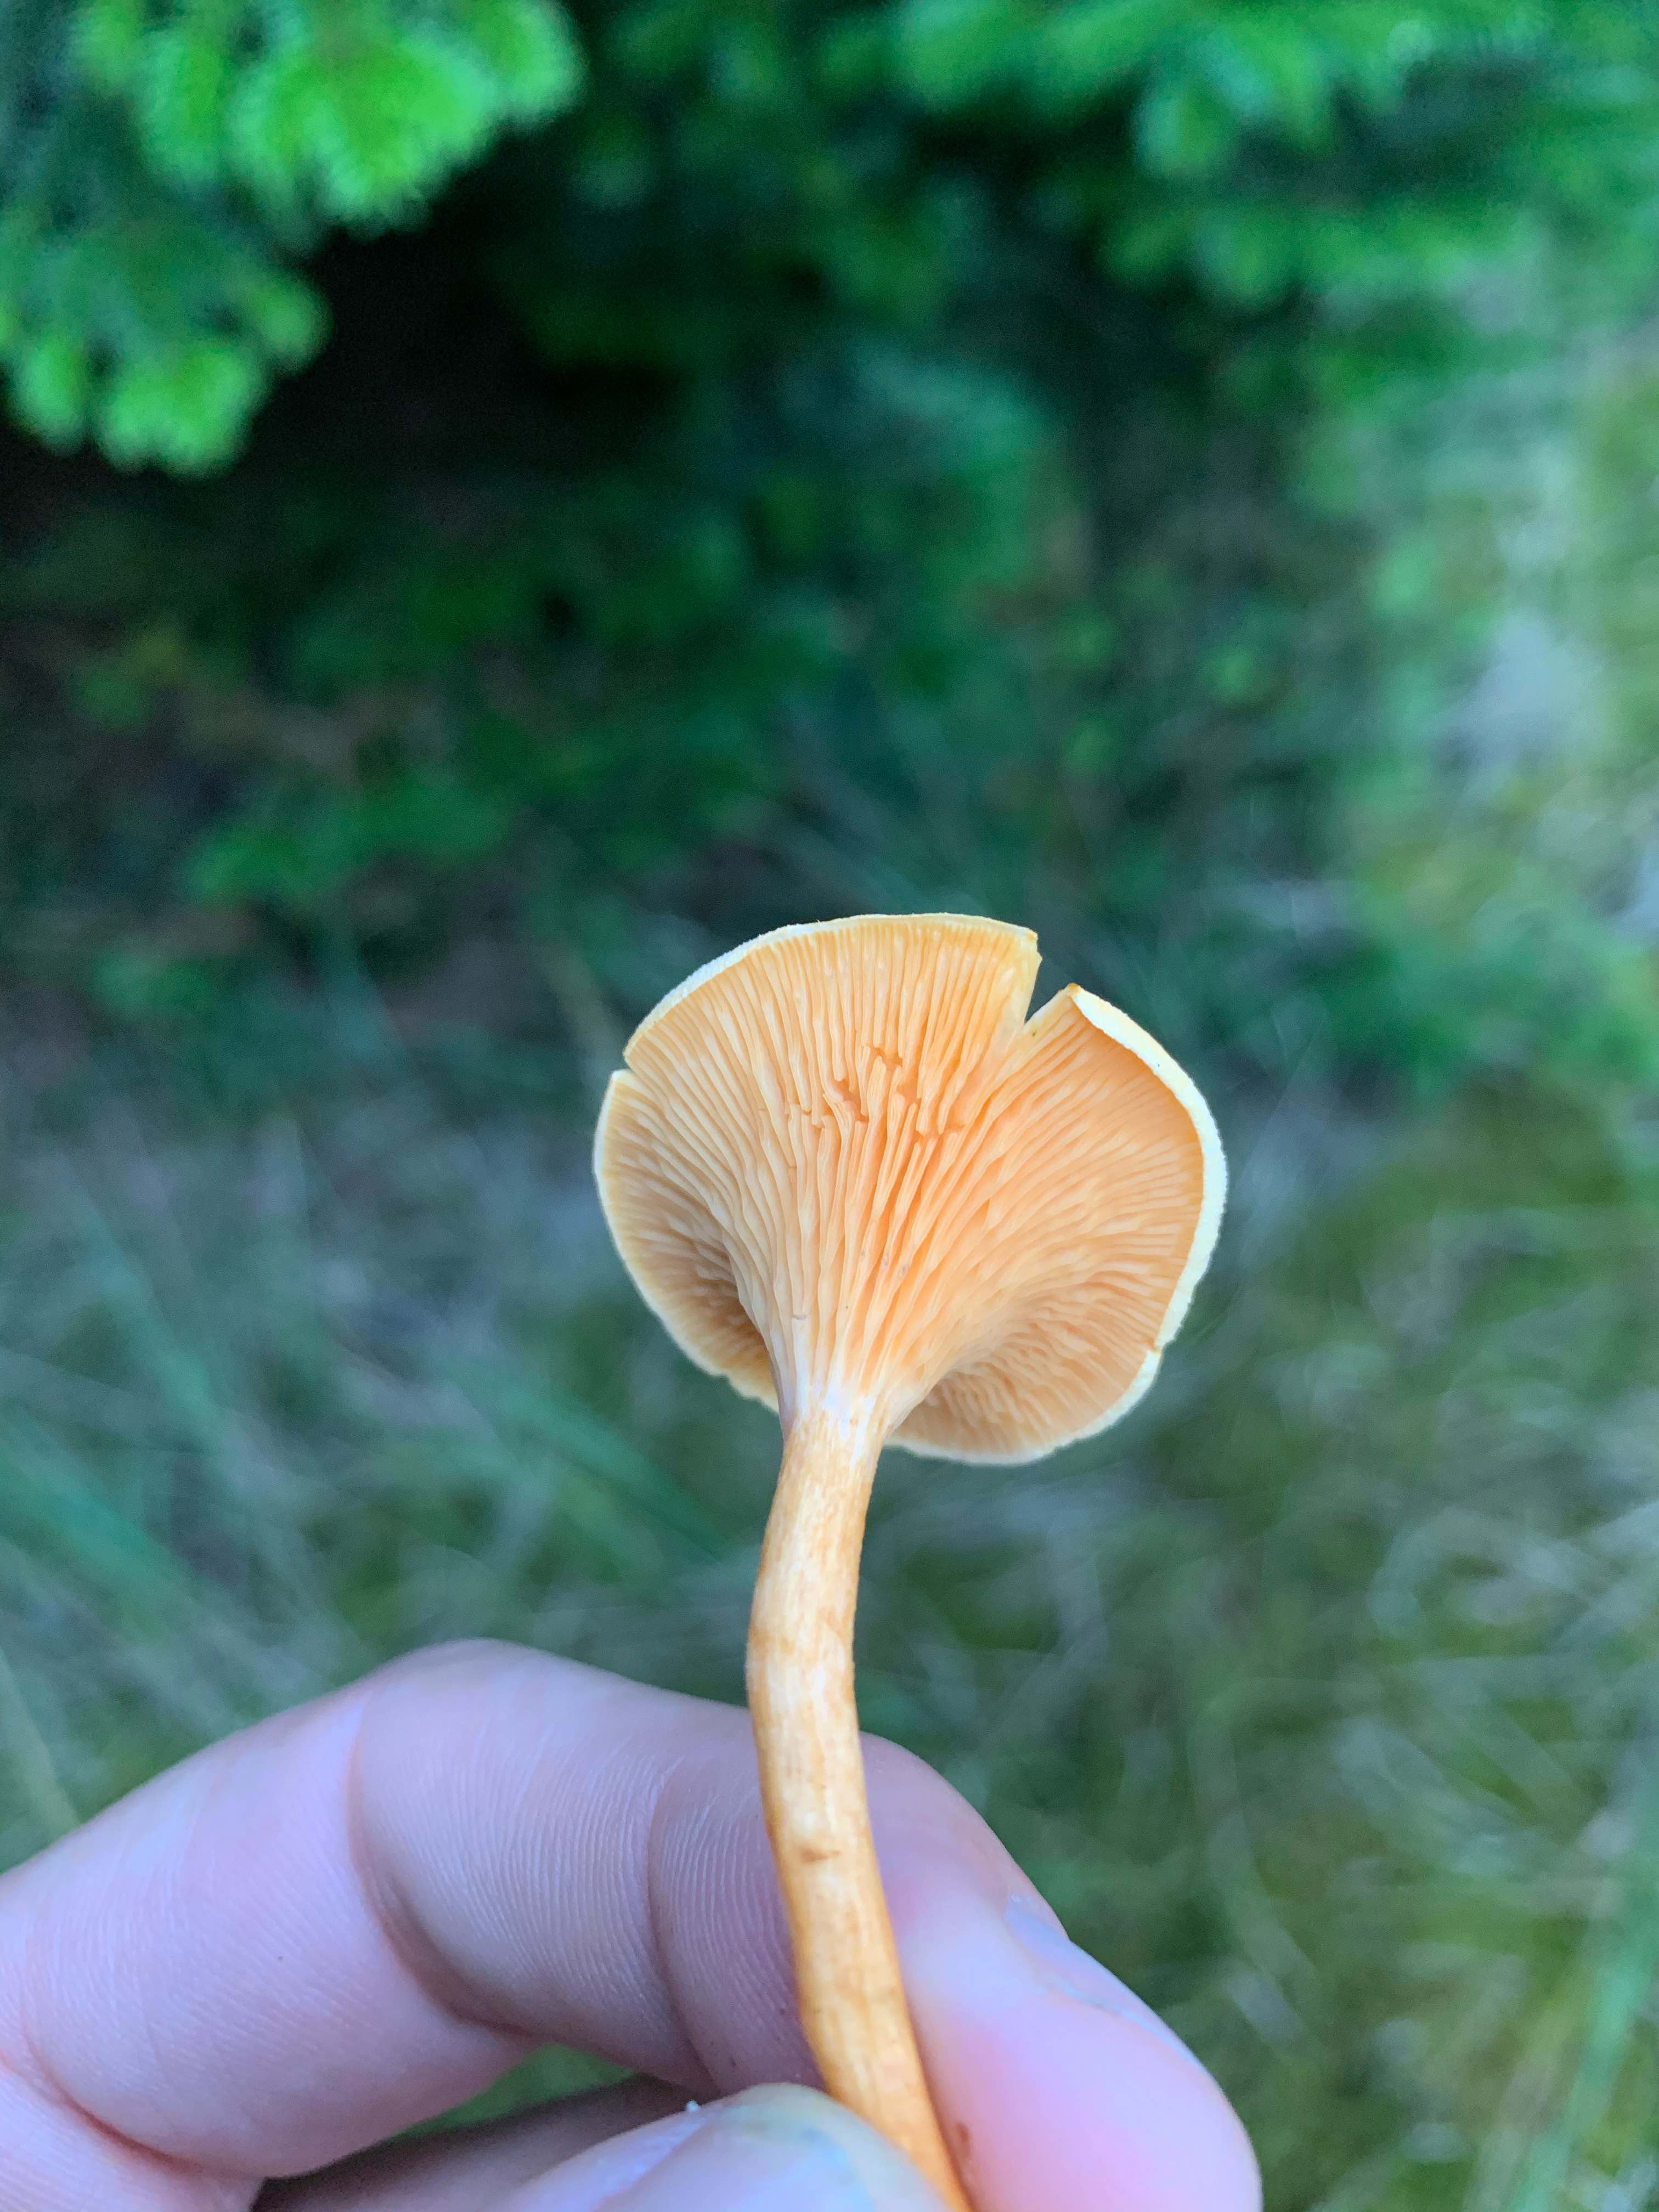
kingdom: Fungi
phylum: Basidiomycota
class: Agaricomycetes
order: Boletales
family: Hygrophoropsidaceae
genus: Hygrophoropsis
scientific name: Hygrophoropsis aurantiaca
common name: almindelig orangekantarel
